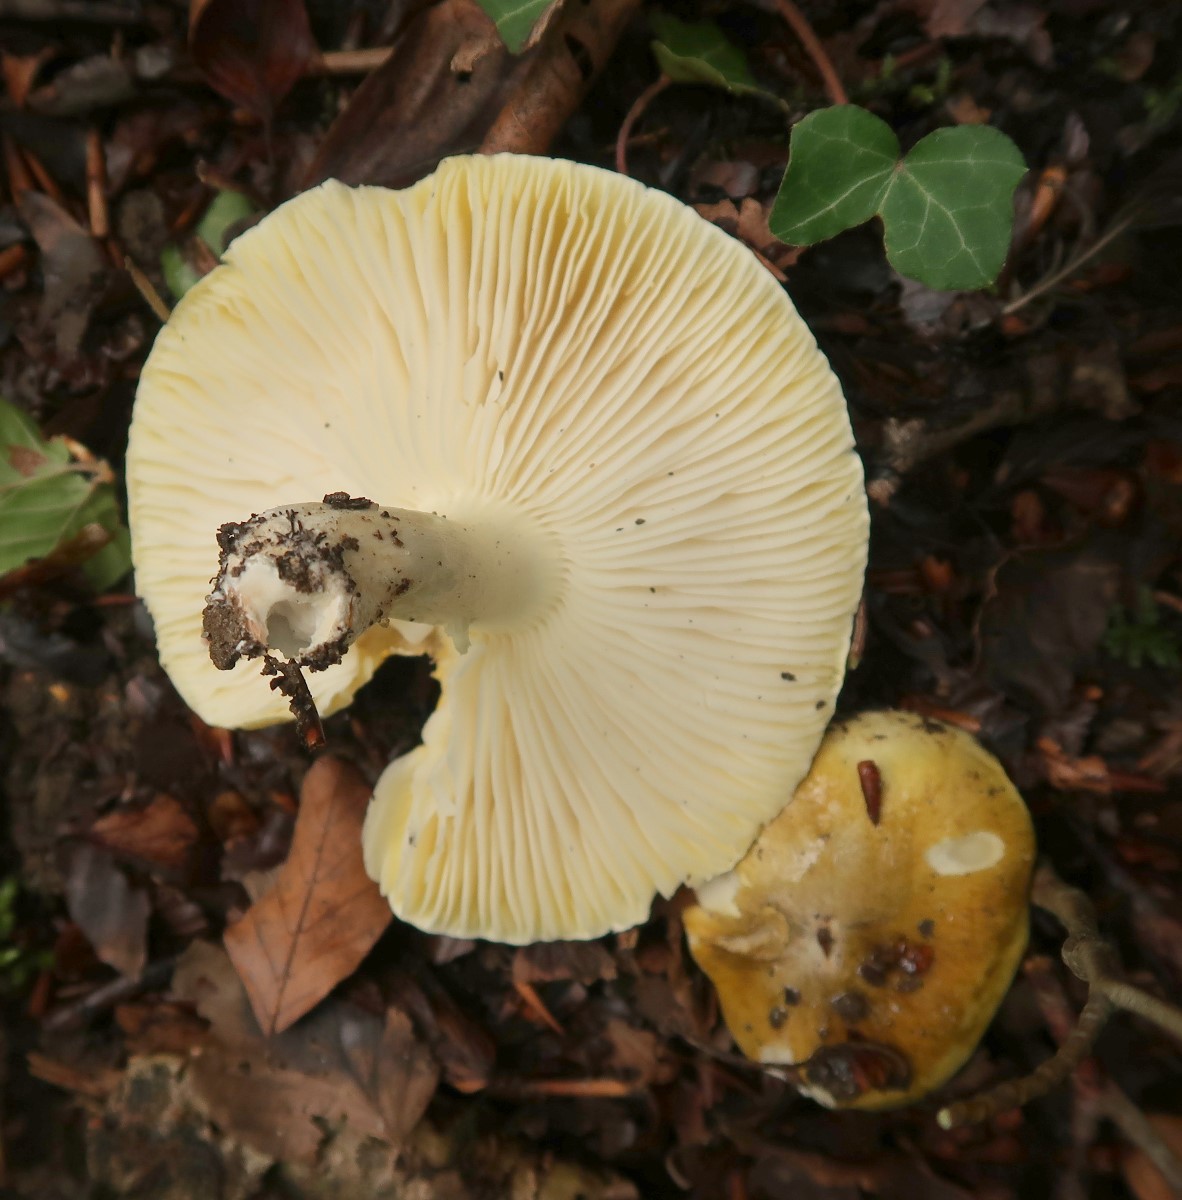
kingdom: Fungi
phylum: Basidiomycota
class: Agaricomycetes
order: Agaricales
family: Tricholomataceae
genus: Tricholoma
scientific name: Tricholoma sejunctum
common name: grøngul ridderhat
